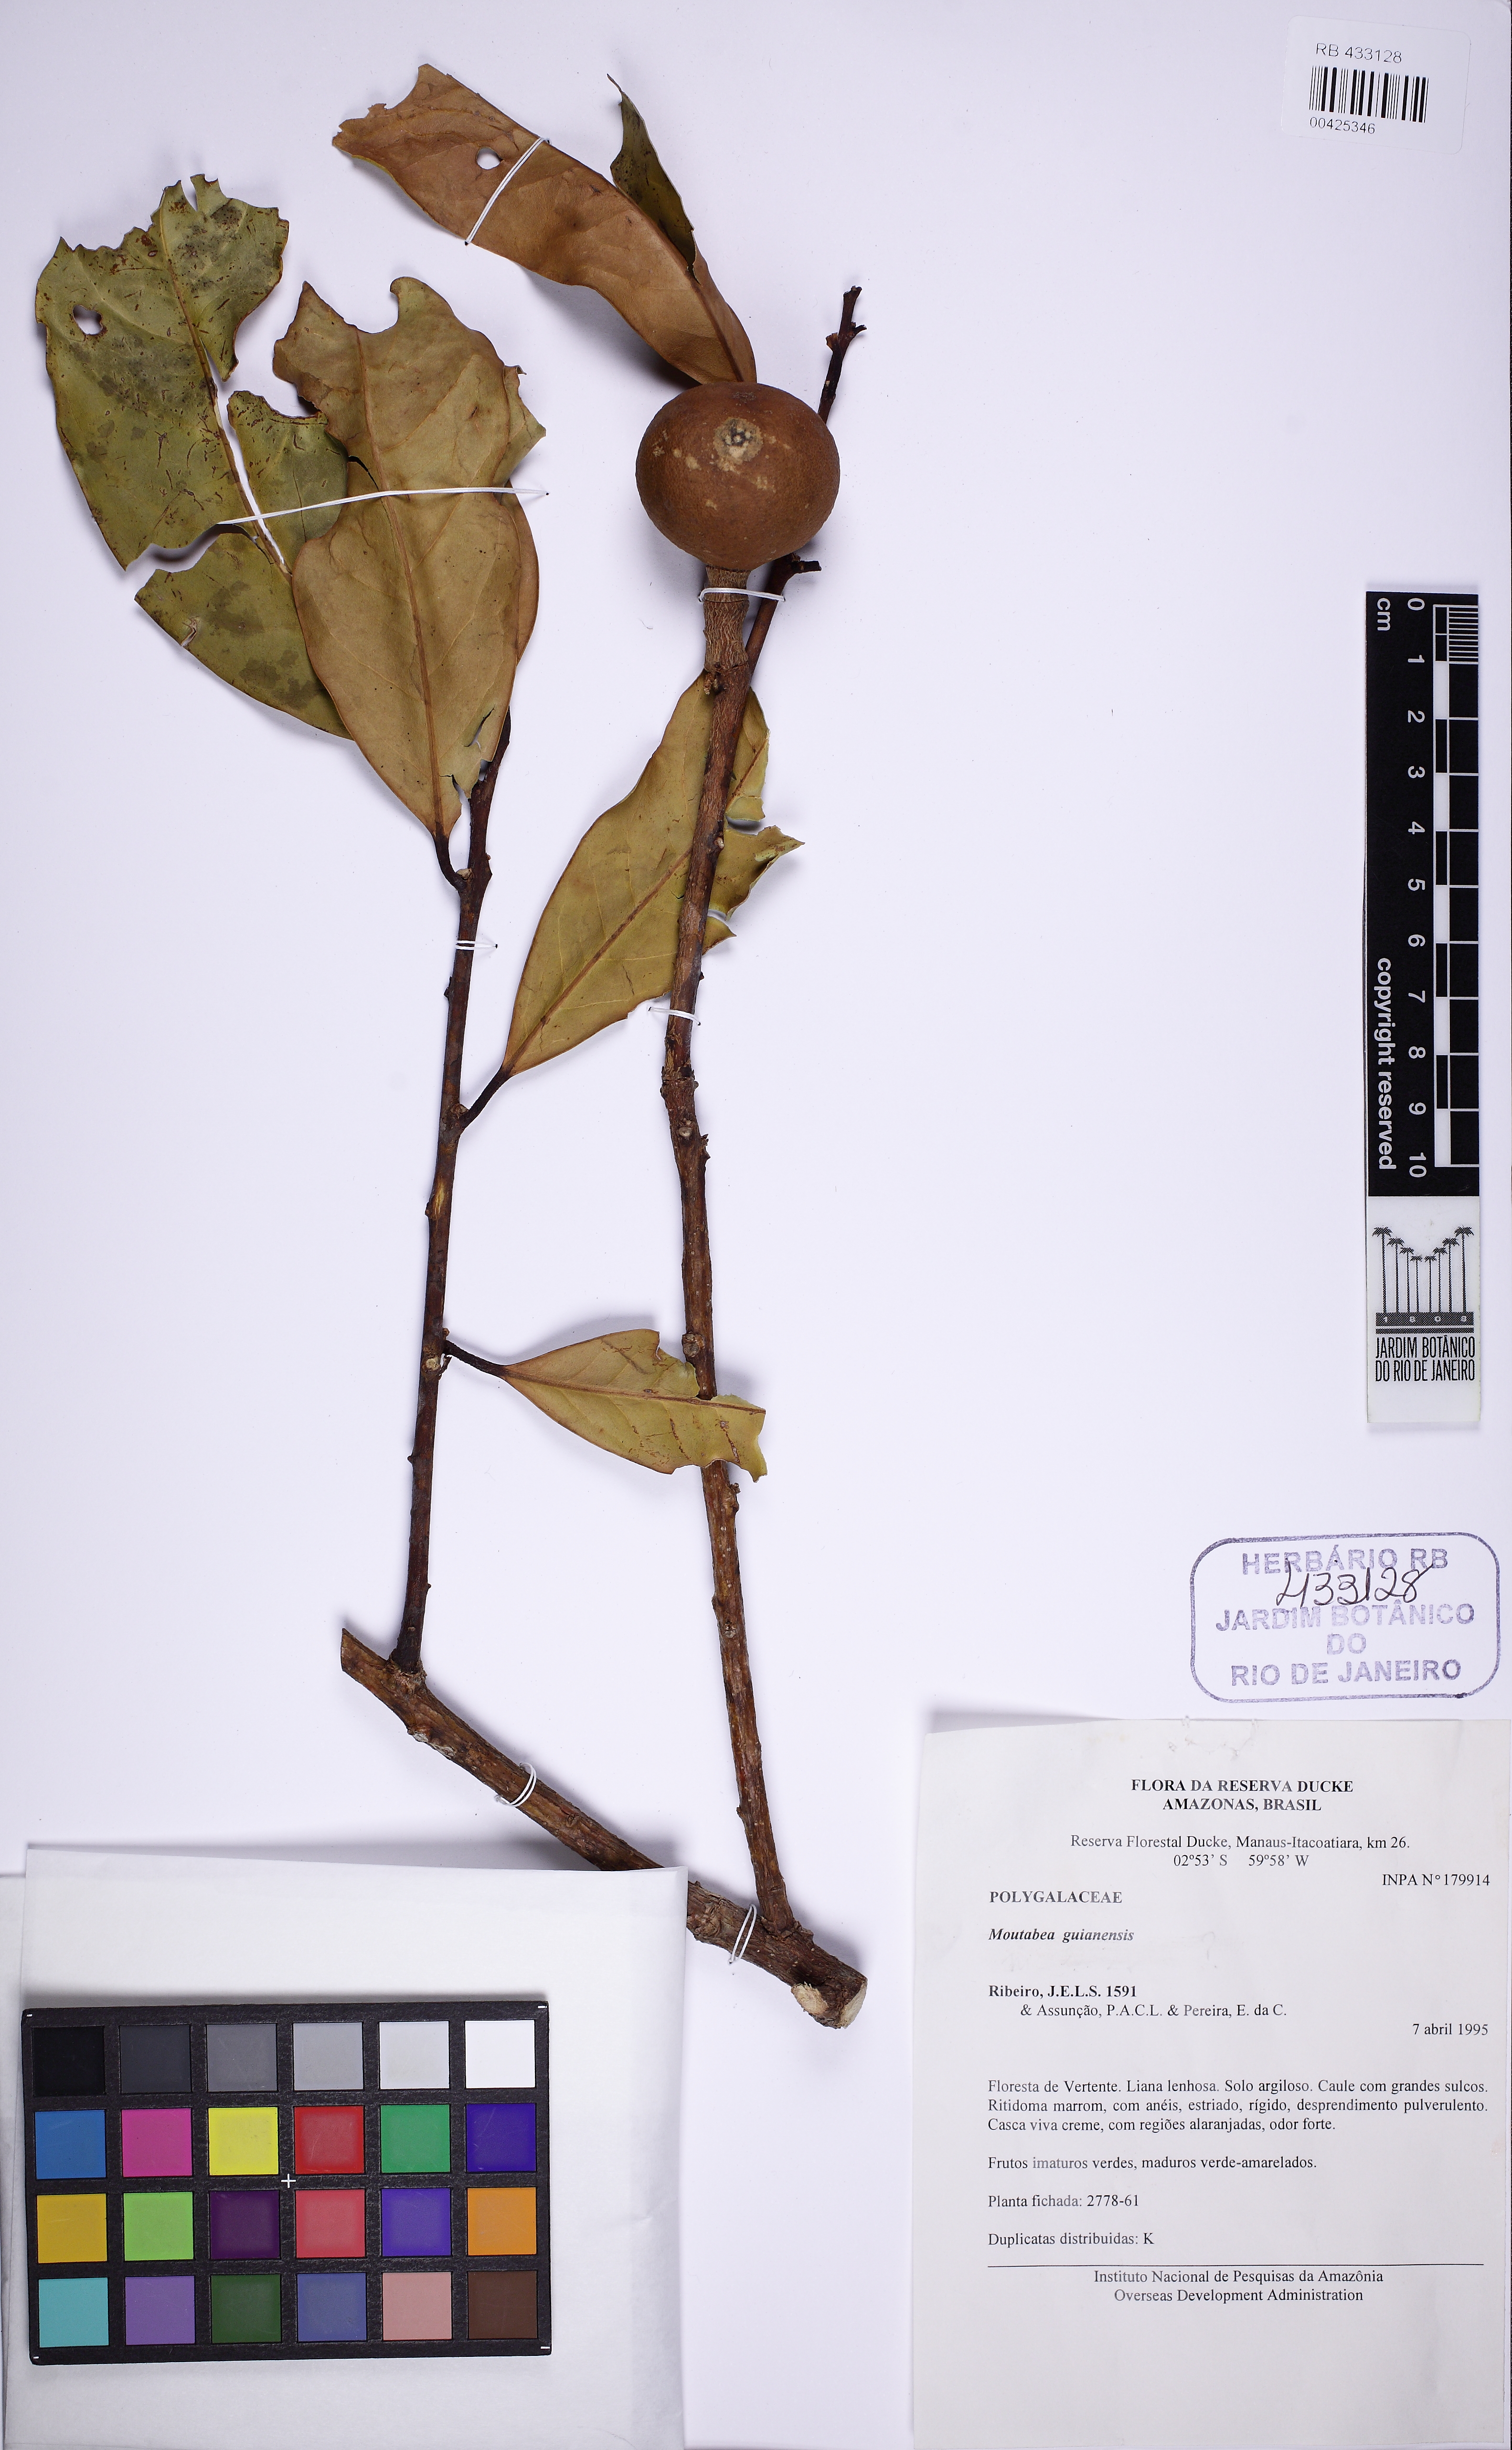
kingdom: Plantae
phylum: Tracheophyta
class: Magnoliopsida
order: Fabales
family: Polygalaceae
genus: Moutabea
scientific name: Moutabea guianensis
